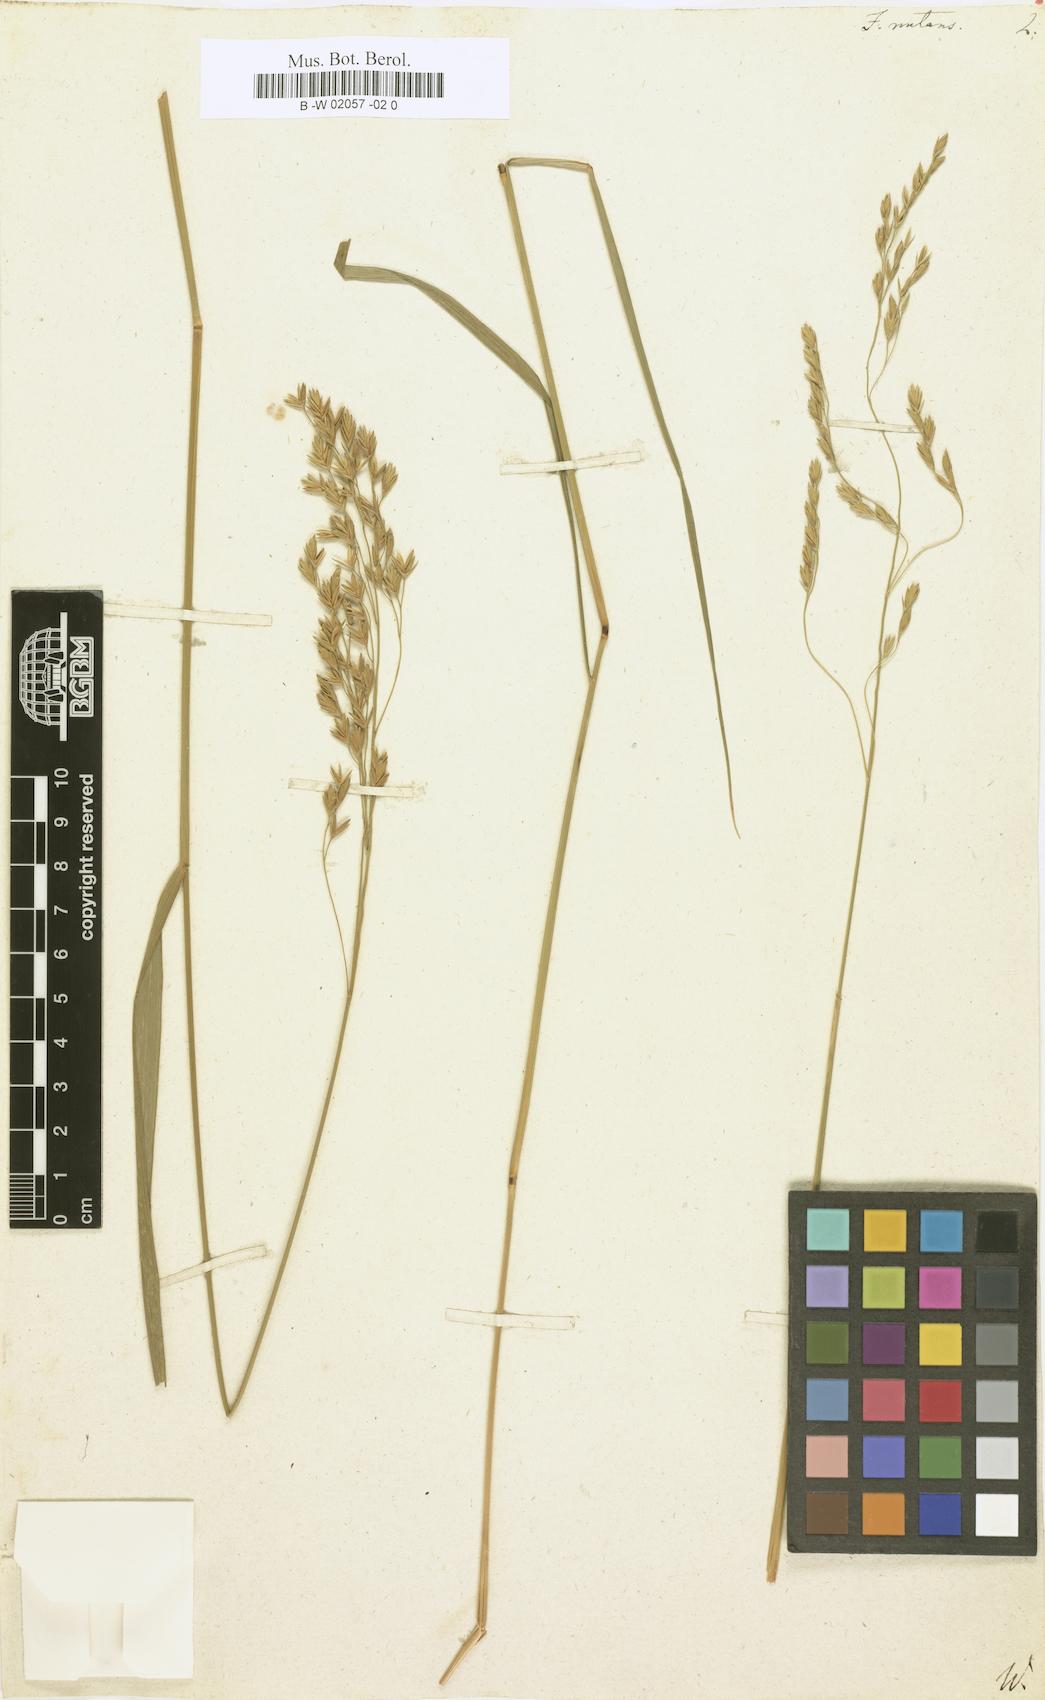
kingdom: Plantae
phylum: Tracheophyta
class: Liliopsida
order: Poales
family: Poaceae
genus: Festuca
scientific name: Festuca nutans
